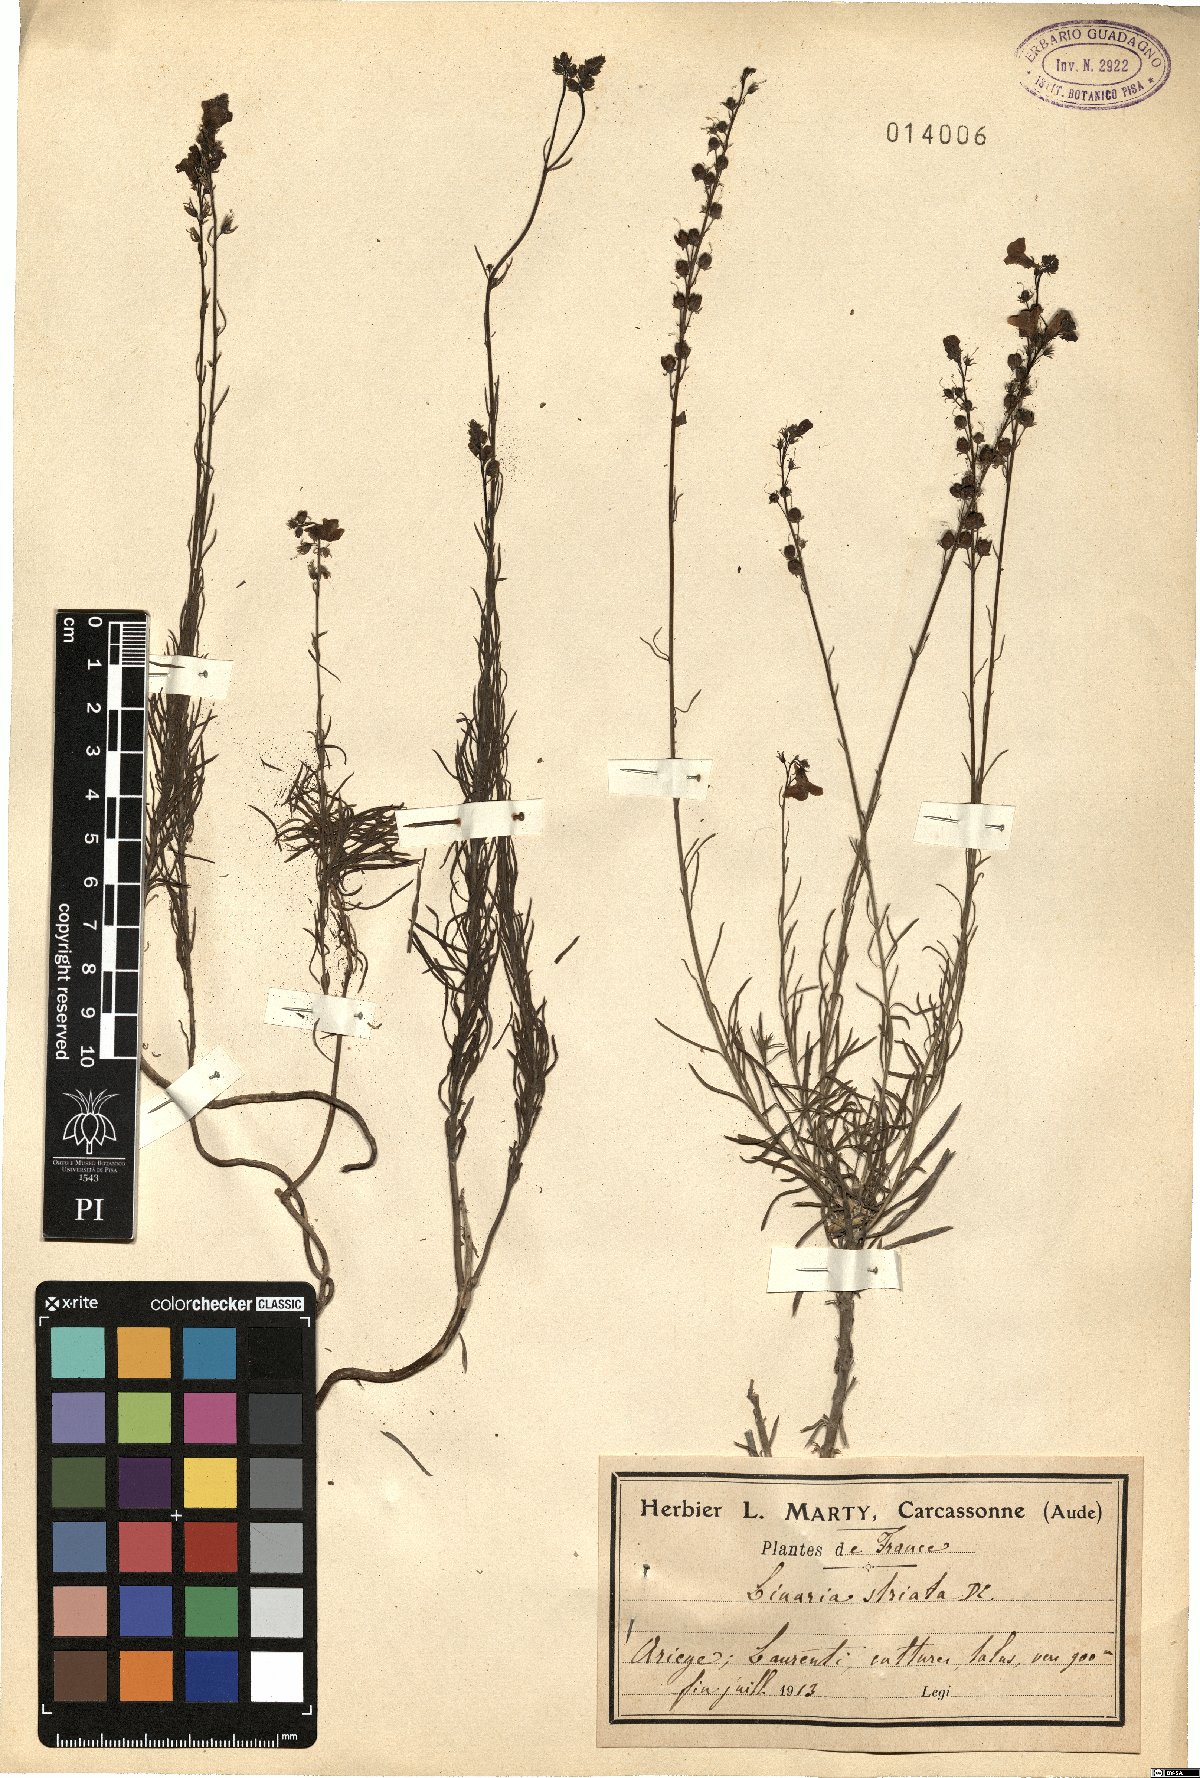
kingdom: Plantae
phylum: Tracheophyta
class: Magnoliopsida
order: Lamiales
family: Plantaginaceae
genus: Linaria
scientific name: Linaria repens
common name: Pale toadflax
